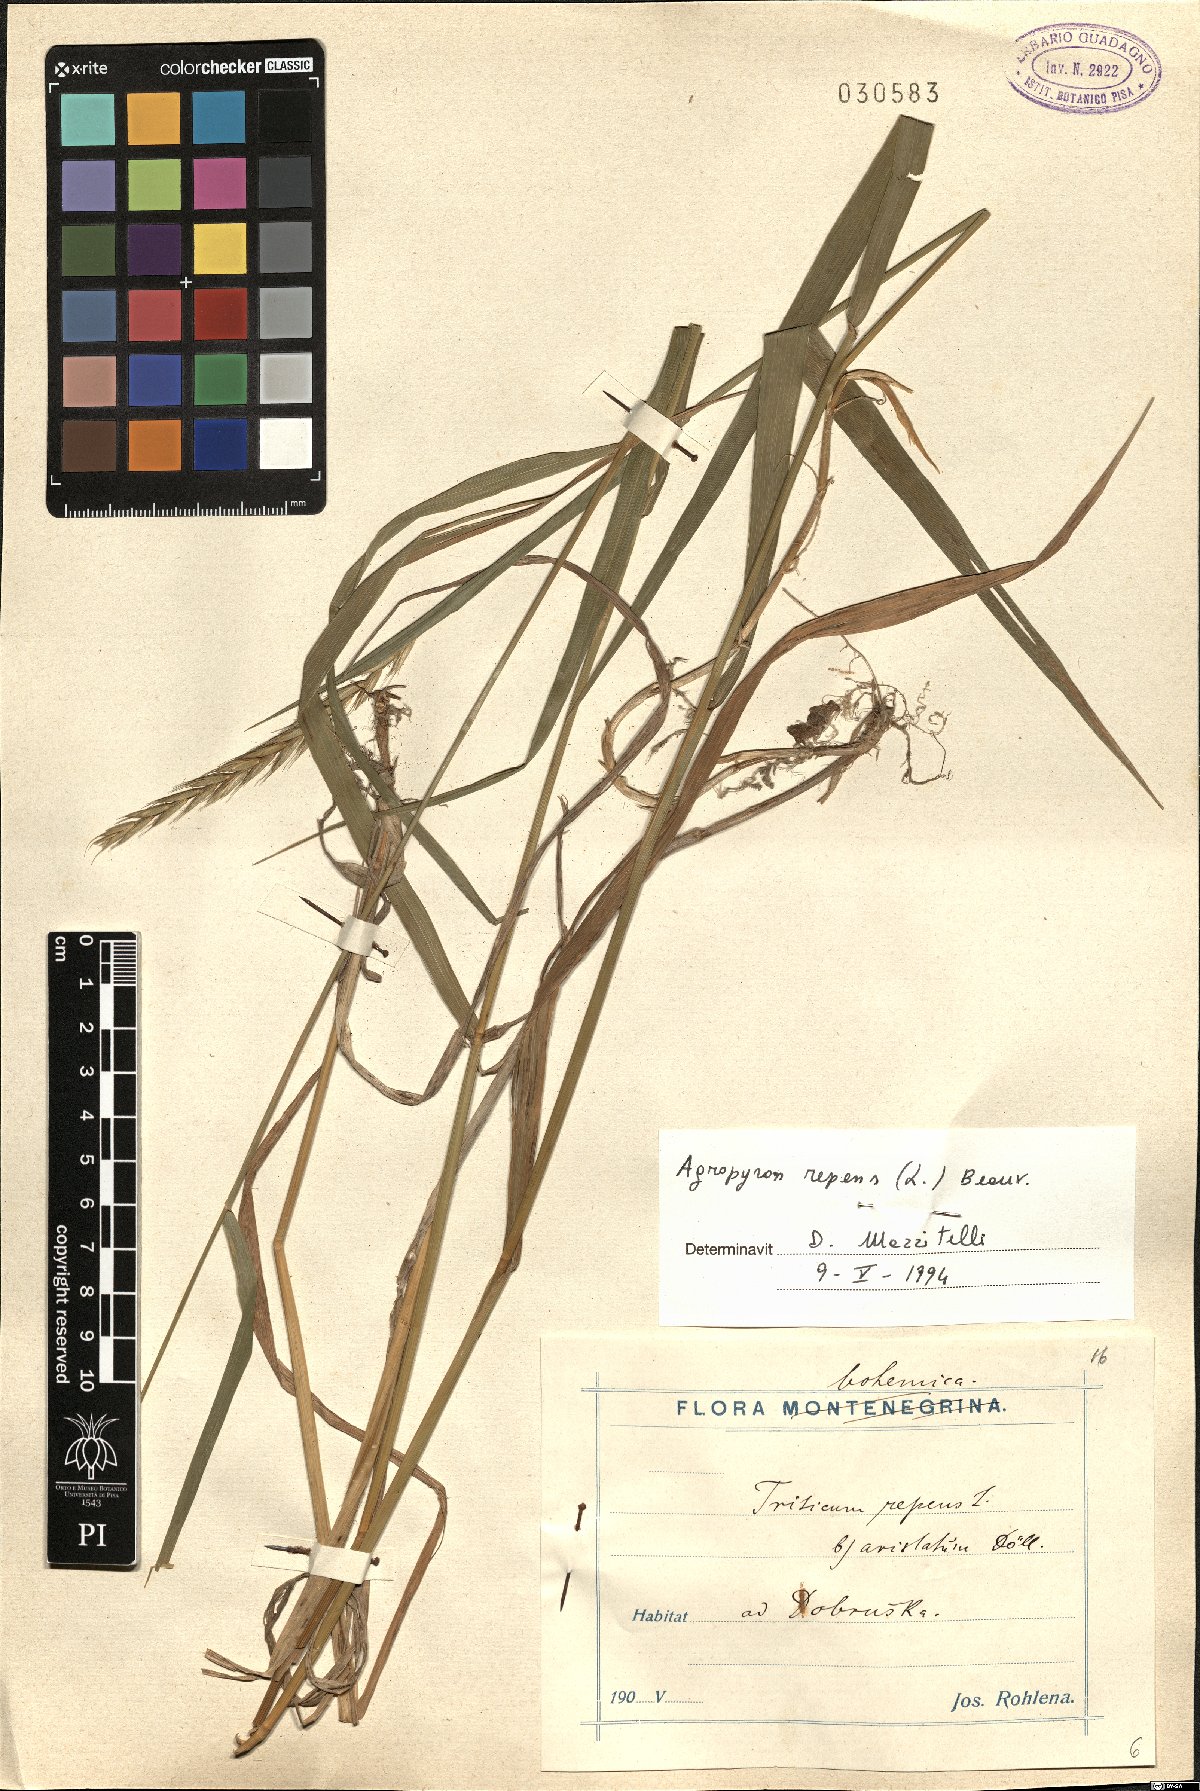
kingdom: Plantae
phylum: Tracheophyta
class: Liliopsida
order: Poales
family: Poaceae
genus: Elymus
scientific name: Elymus repens
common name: Quackgrass
